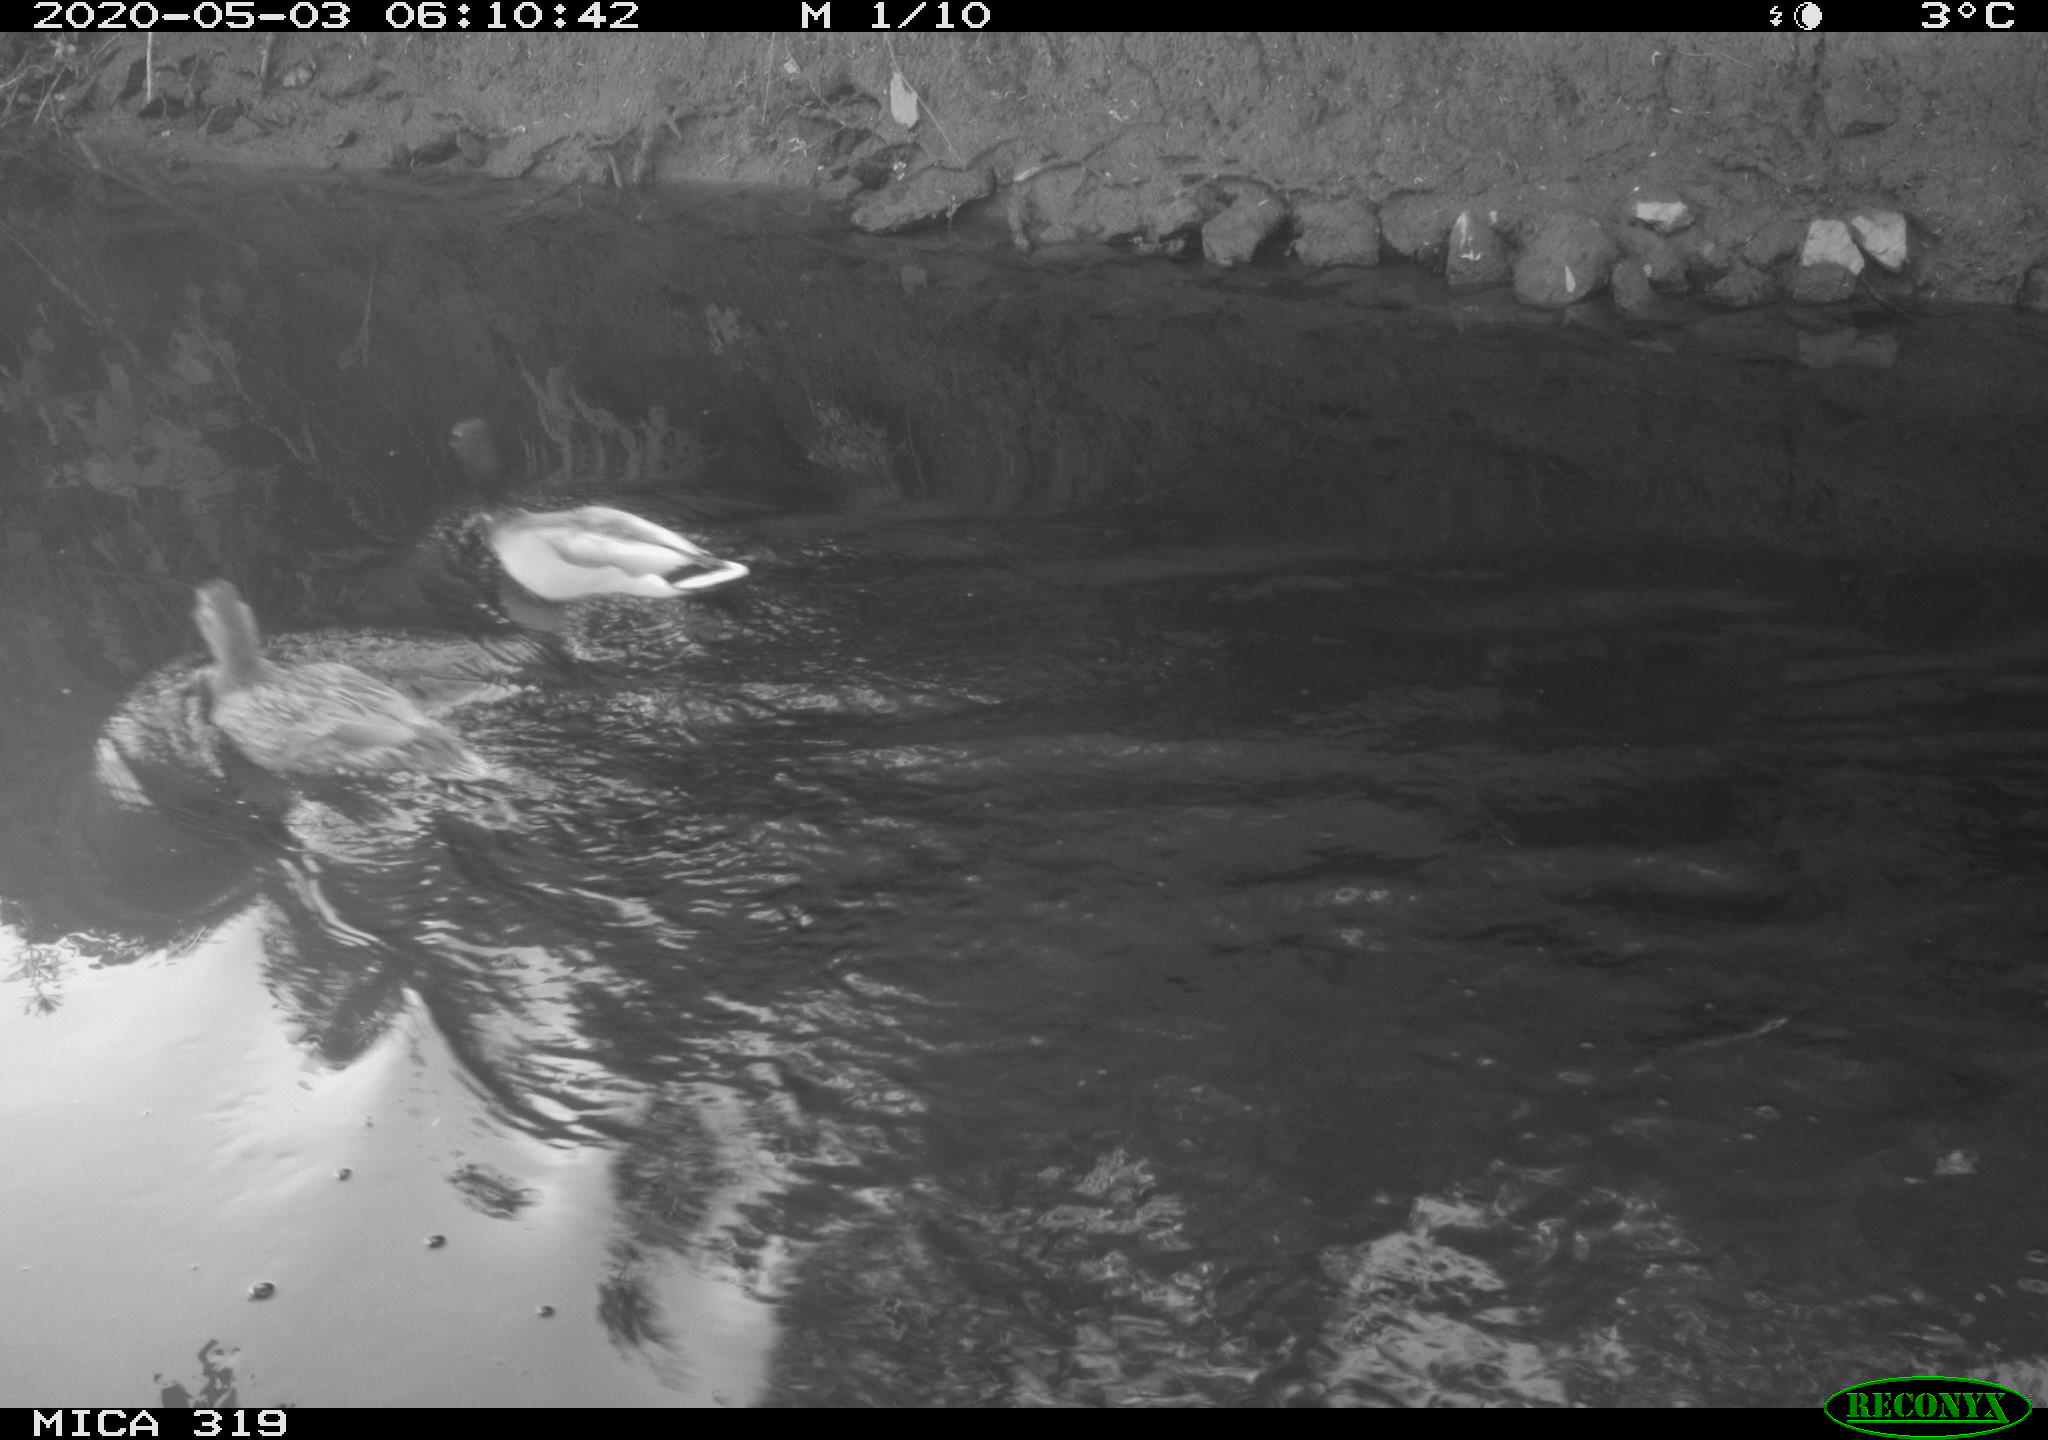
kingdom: Animalia
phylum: Chordata
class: Aves
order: Anseriformes
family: Anatidae
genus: Anas
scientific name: Anas platyrhynchos
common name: Mallard
